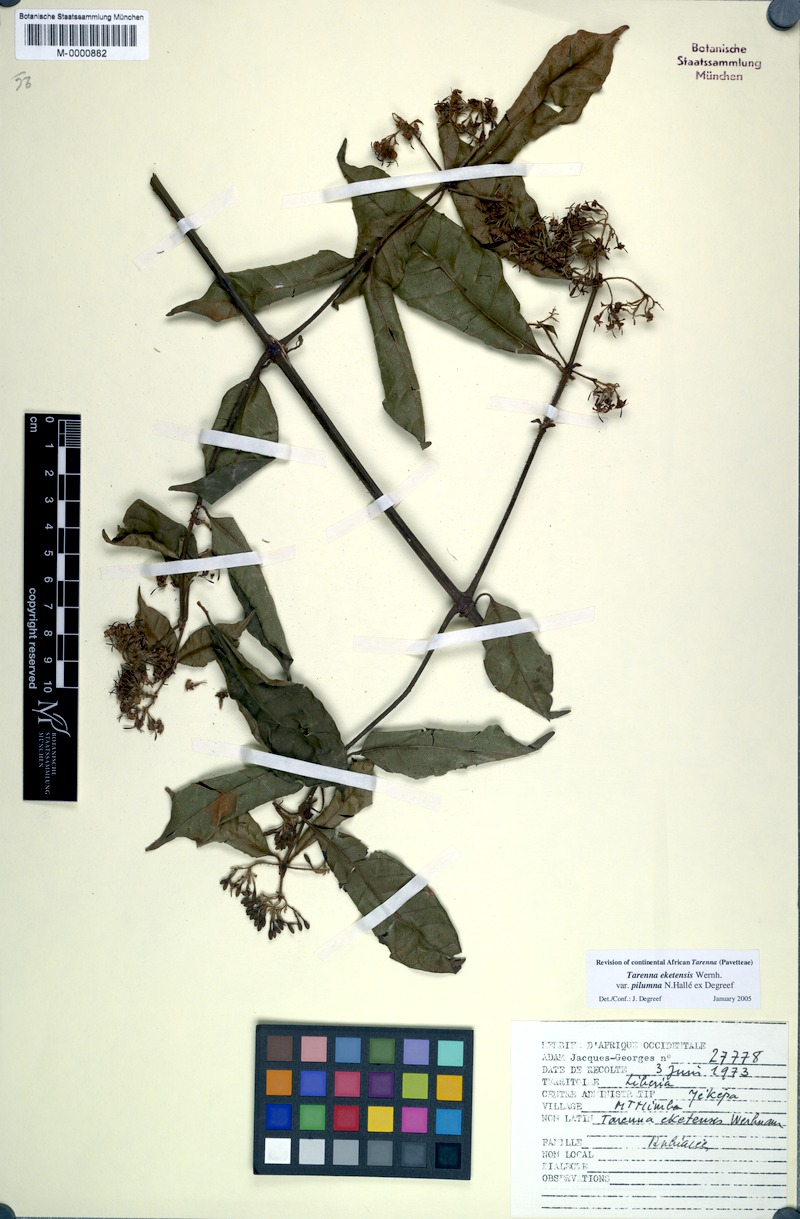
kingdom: Plantae
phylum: Tracheophyta
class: Magnoliopsida
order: Gentianales
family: Rubiaceae
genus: Tarenna
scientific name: Tarenna eketensis
